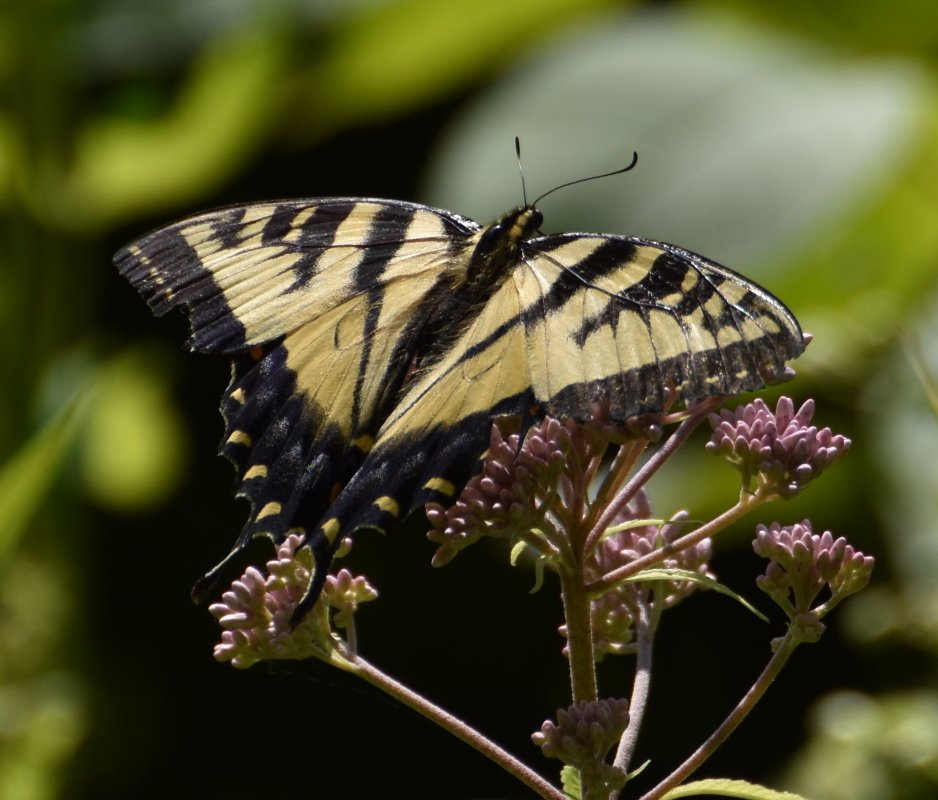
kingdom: Animalia
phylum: Arthropoda
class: Insecta
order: Lepidoptera
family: Papilionidae
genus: Pterourus
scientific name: Pterourus glaucus
